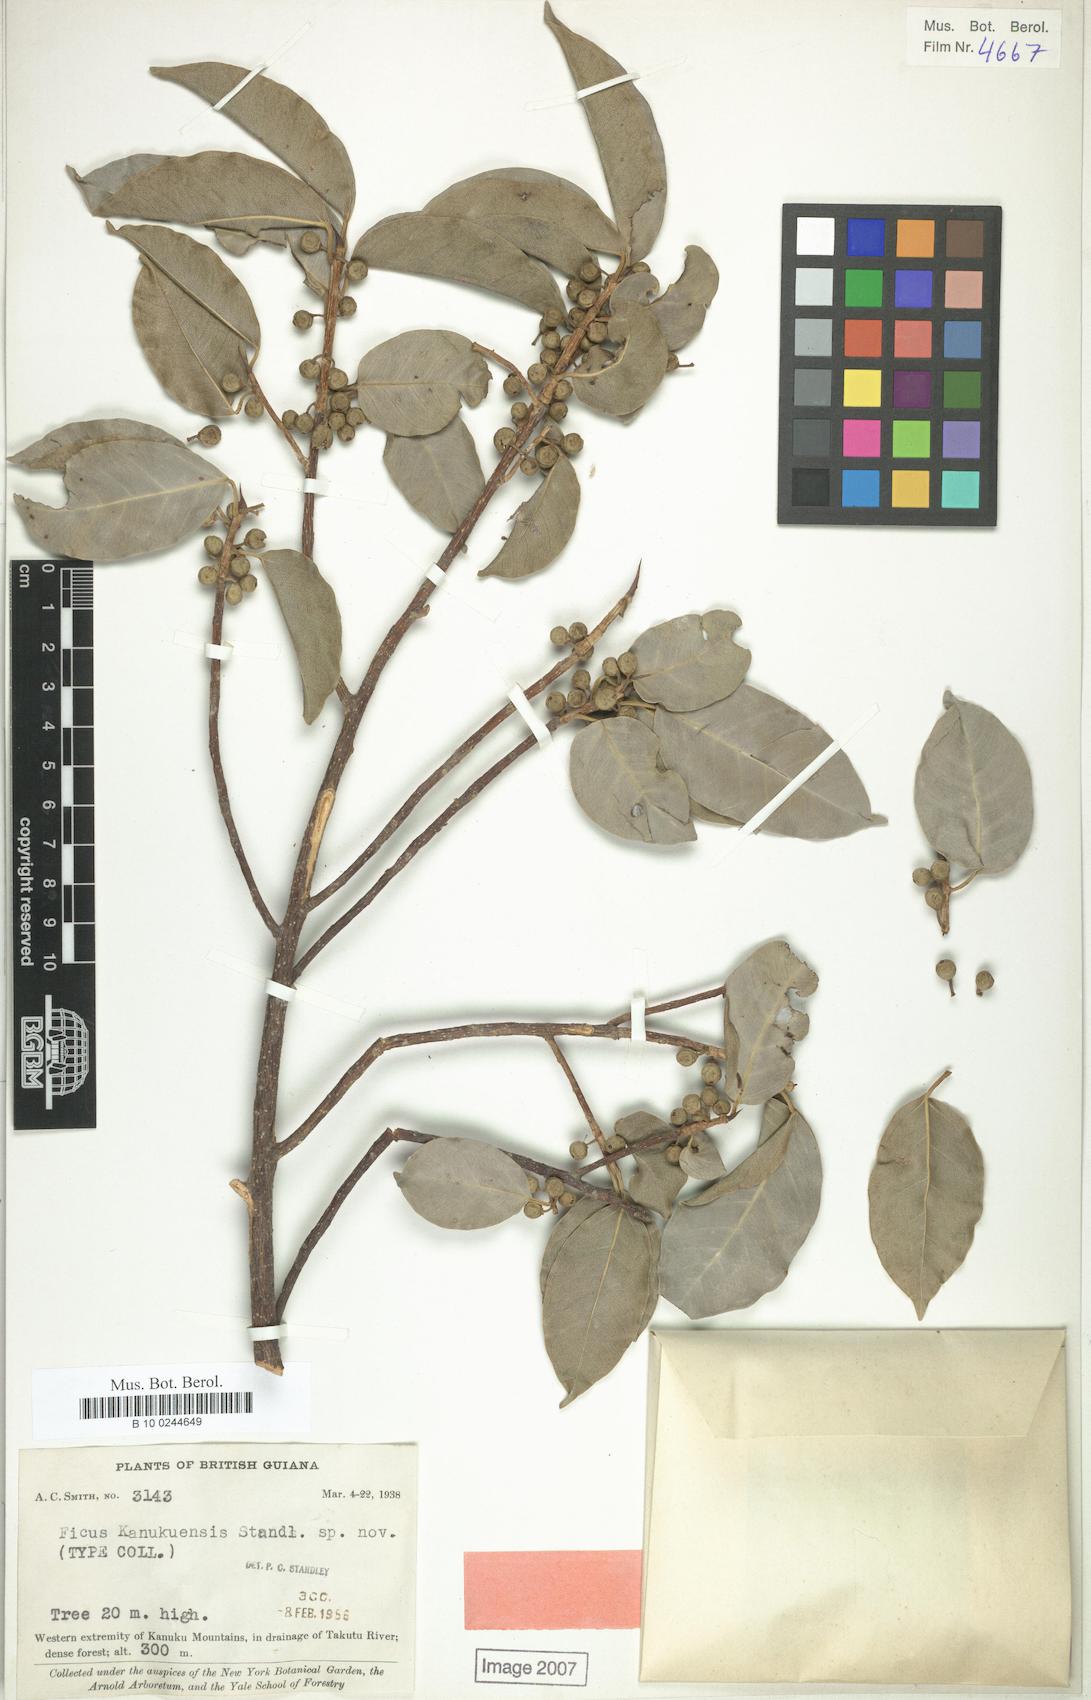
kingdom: Plantae
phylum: Tracheophyta
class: Magnoliopsida
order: Rosales
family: Moraceae
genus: Ficus
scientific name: Ficus pertusa
